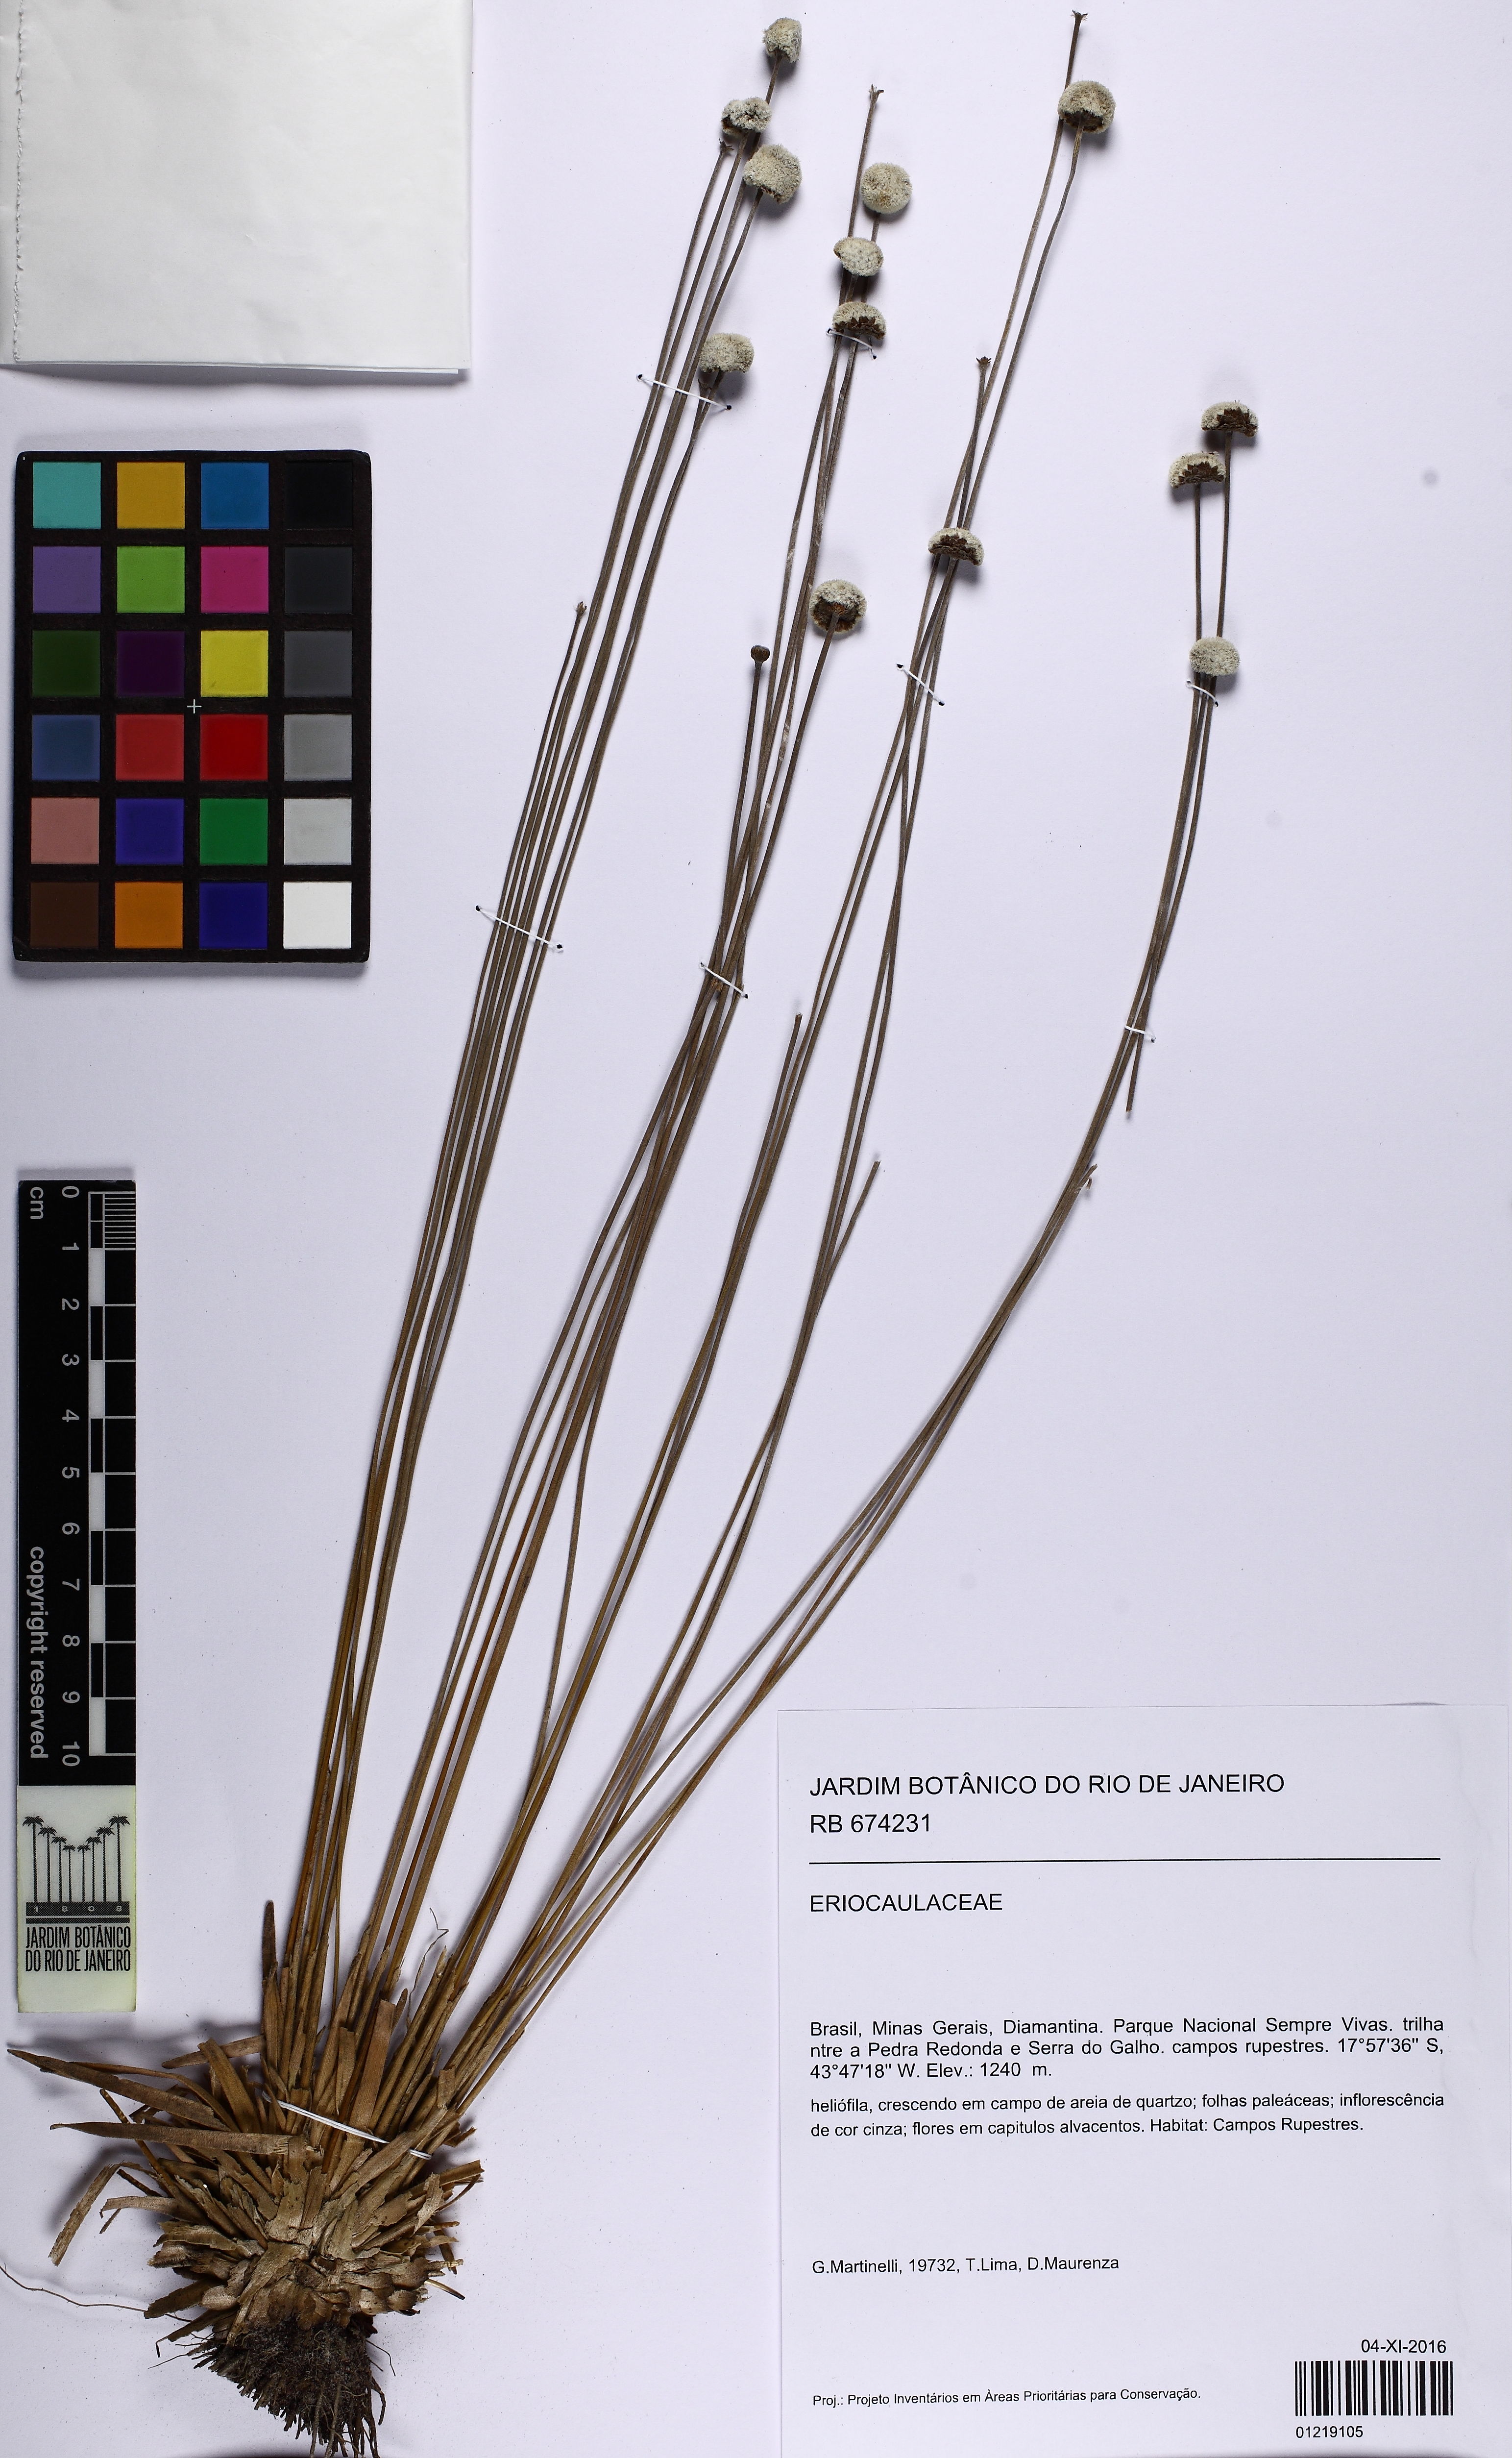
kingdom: Plantae
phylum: Tracheophyta
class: Liliopsida
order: Poales
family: Eriocaulaceae
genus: Paepalanthus
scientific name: Paepalanthus macrocephalus
